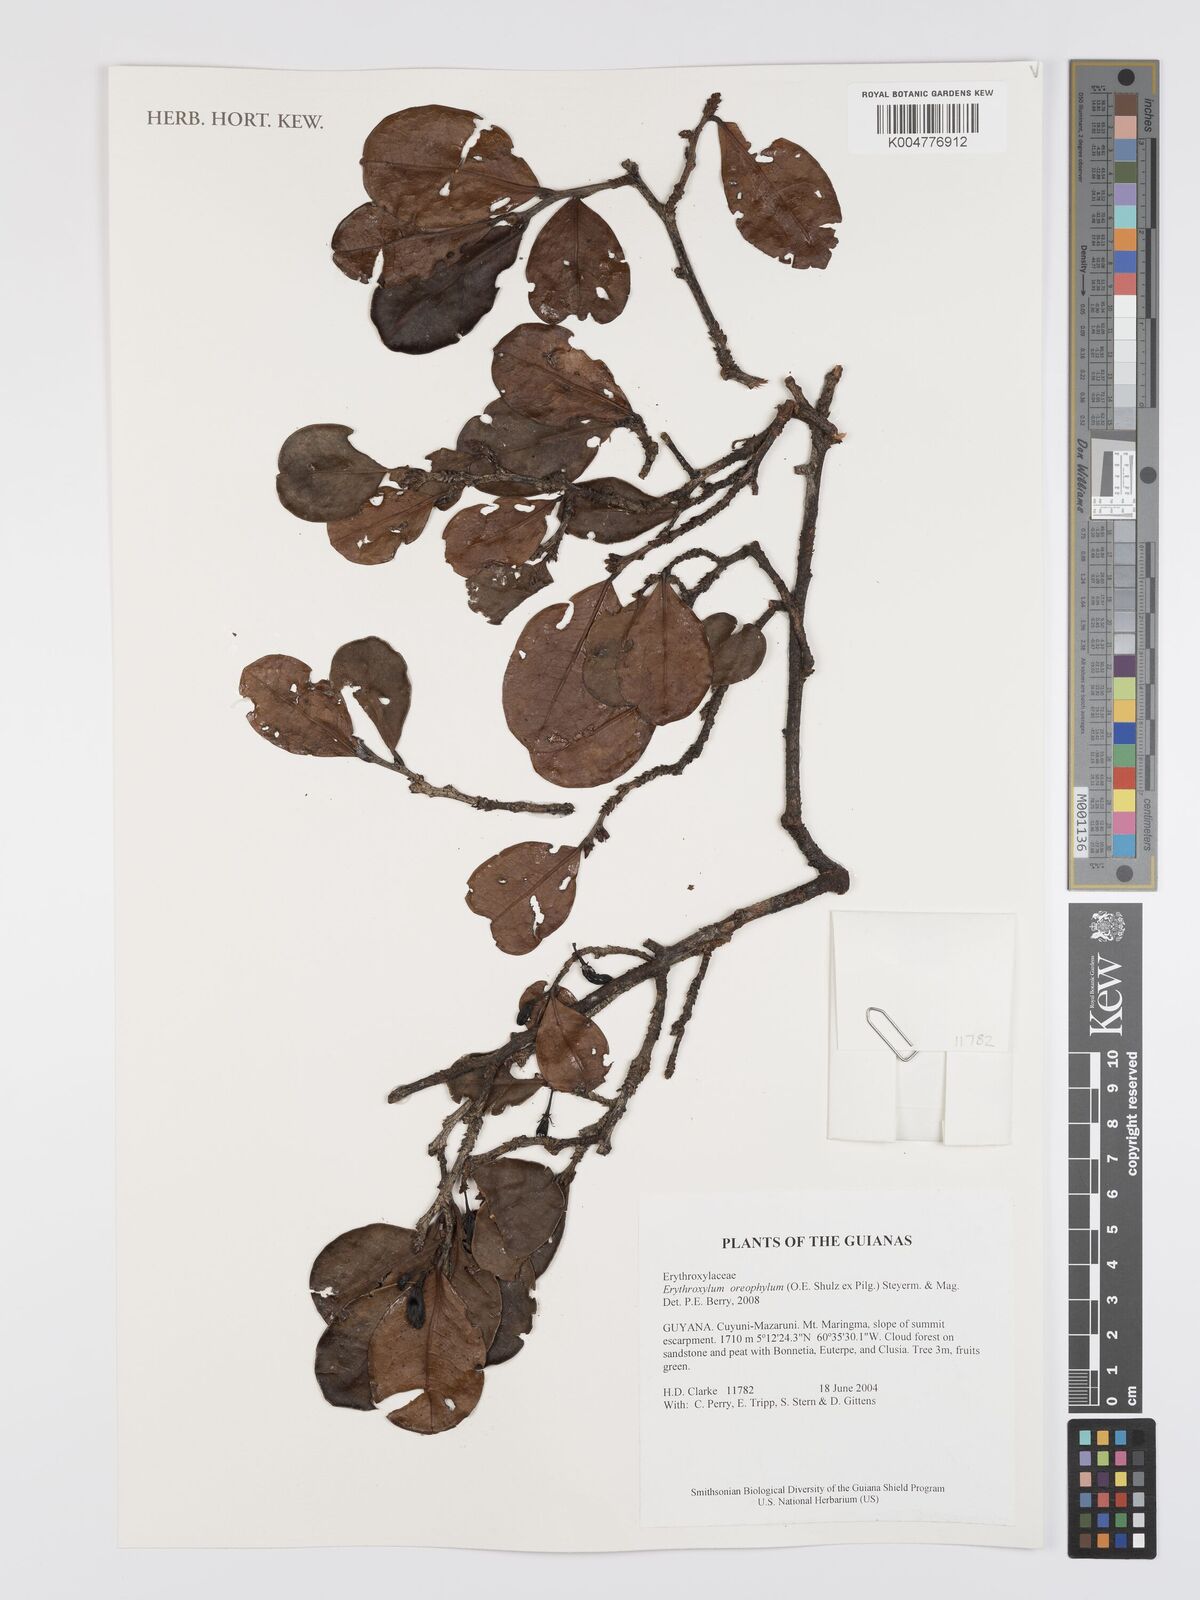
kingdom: Plantae
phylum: Tracheophyta
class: Magnoliopsida
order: Malpighiales
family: Erythroxylaceae
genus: Erythroxylum
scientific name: Erythroxylum oreophilum
